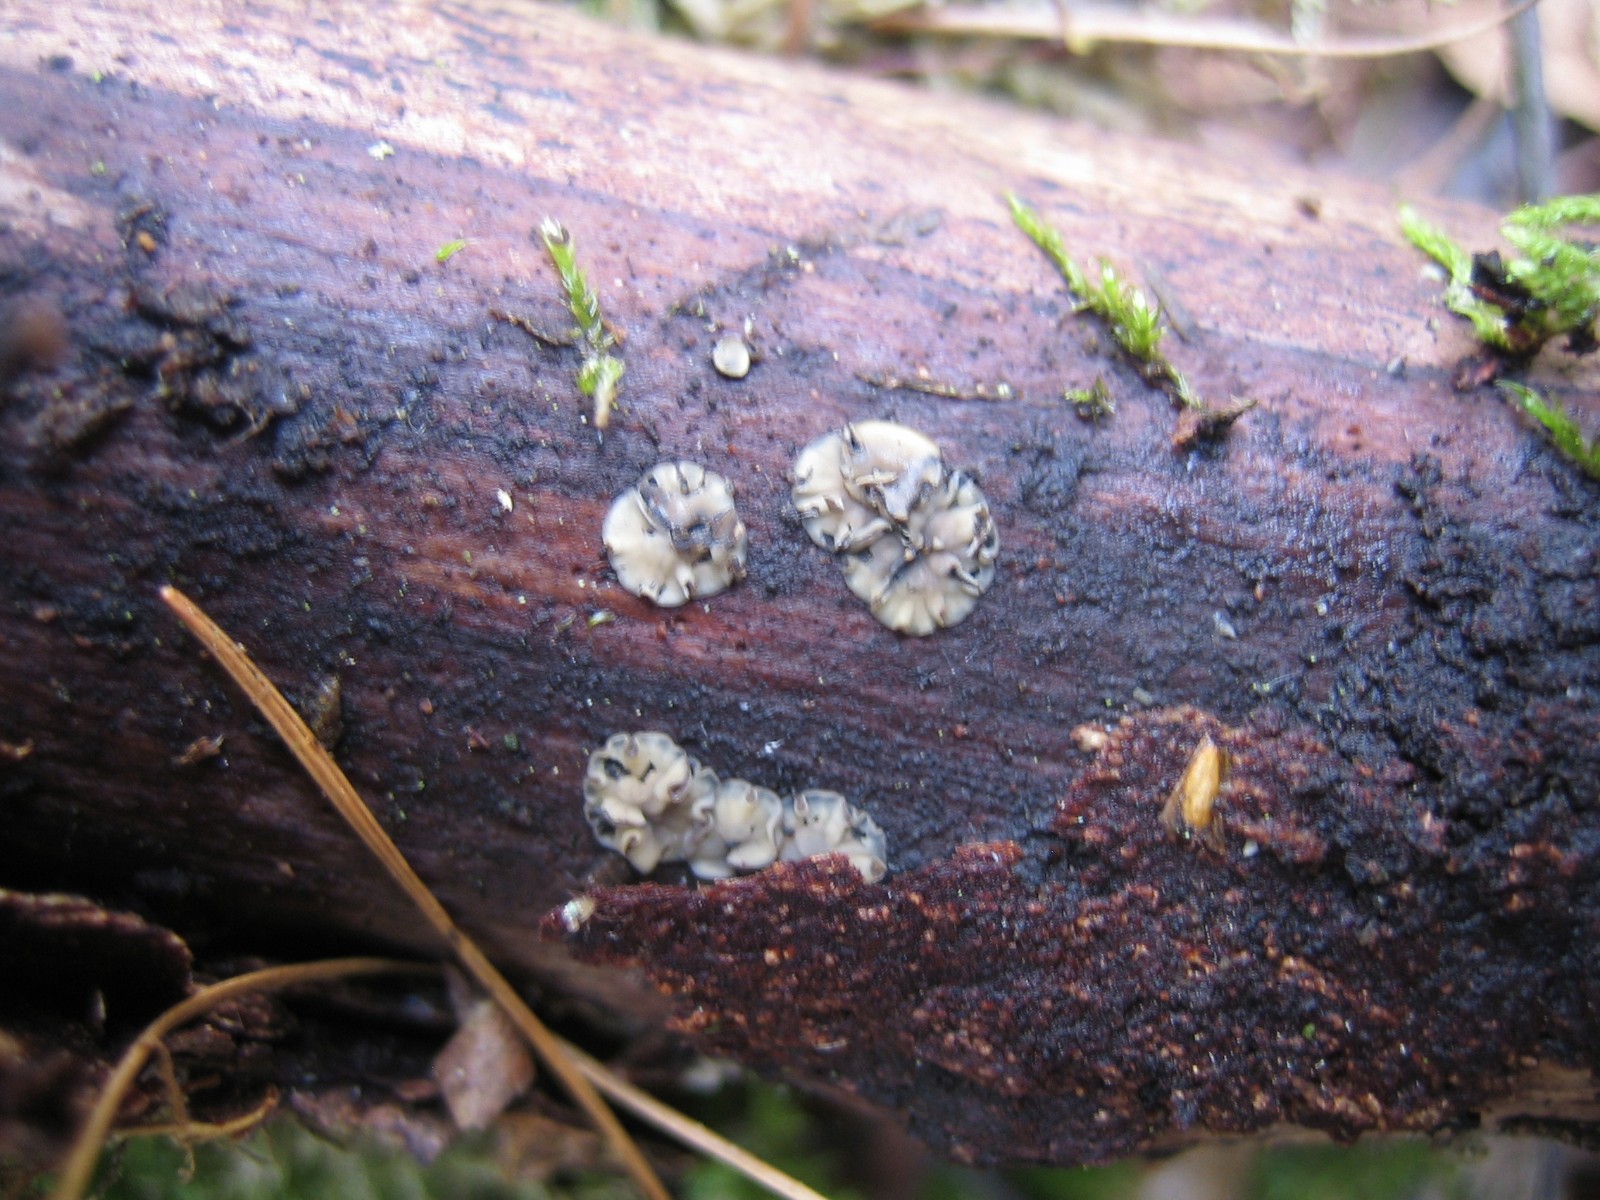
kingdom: Fungi
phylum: Ascomycota
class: Leotiomycetes
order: Helotiales
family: Mollisiaceae
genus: Mollisia
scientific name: Mollisia
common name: gråskive
